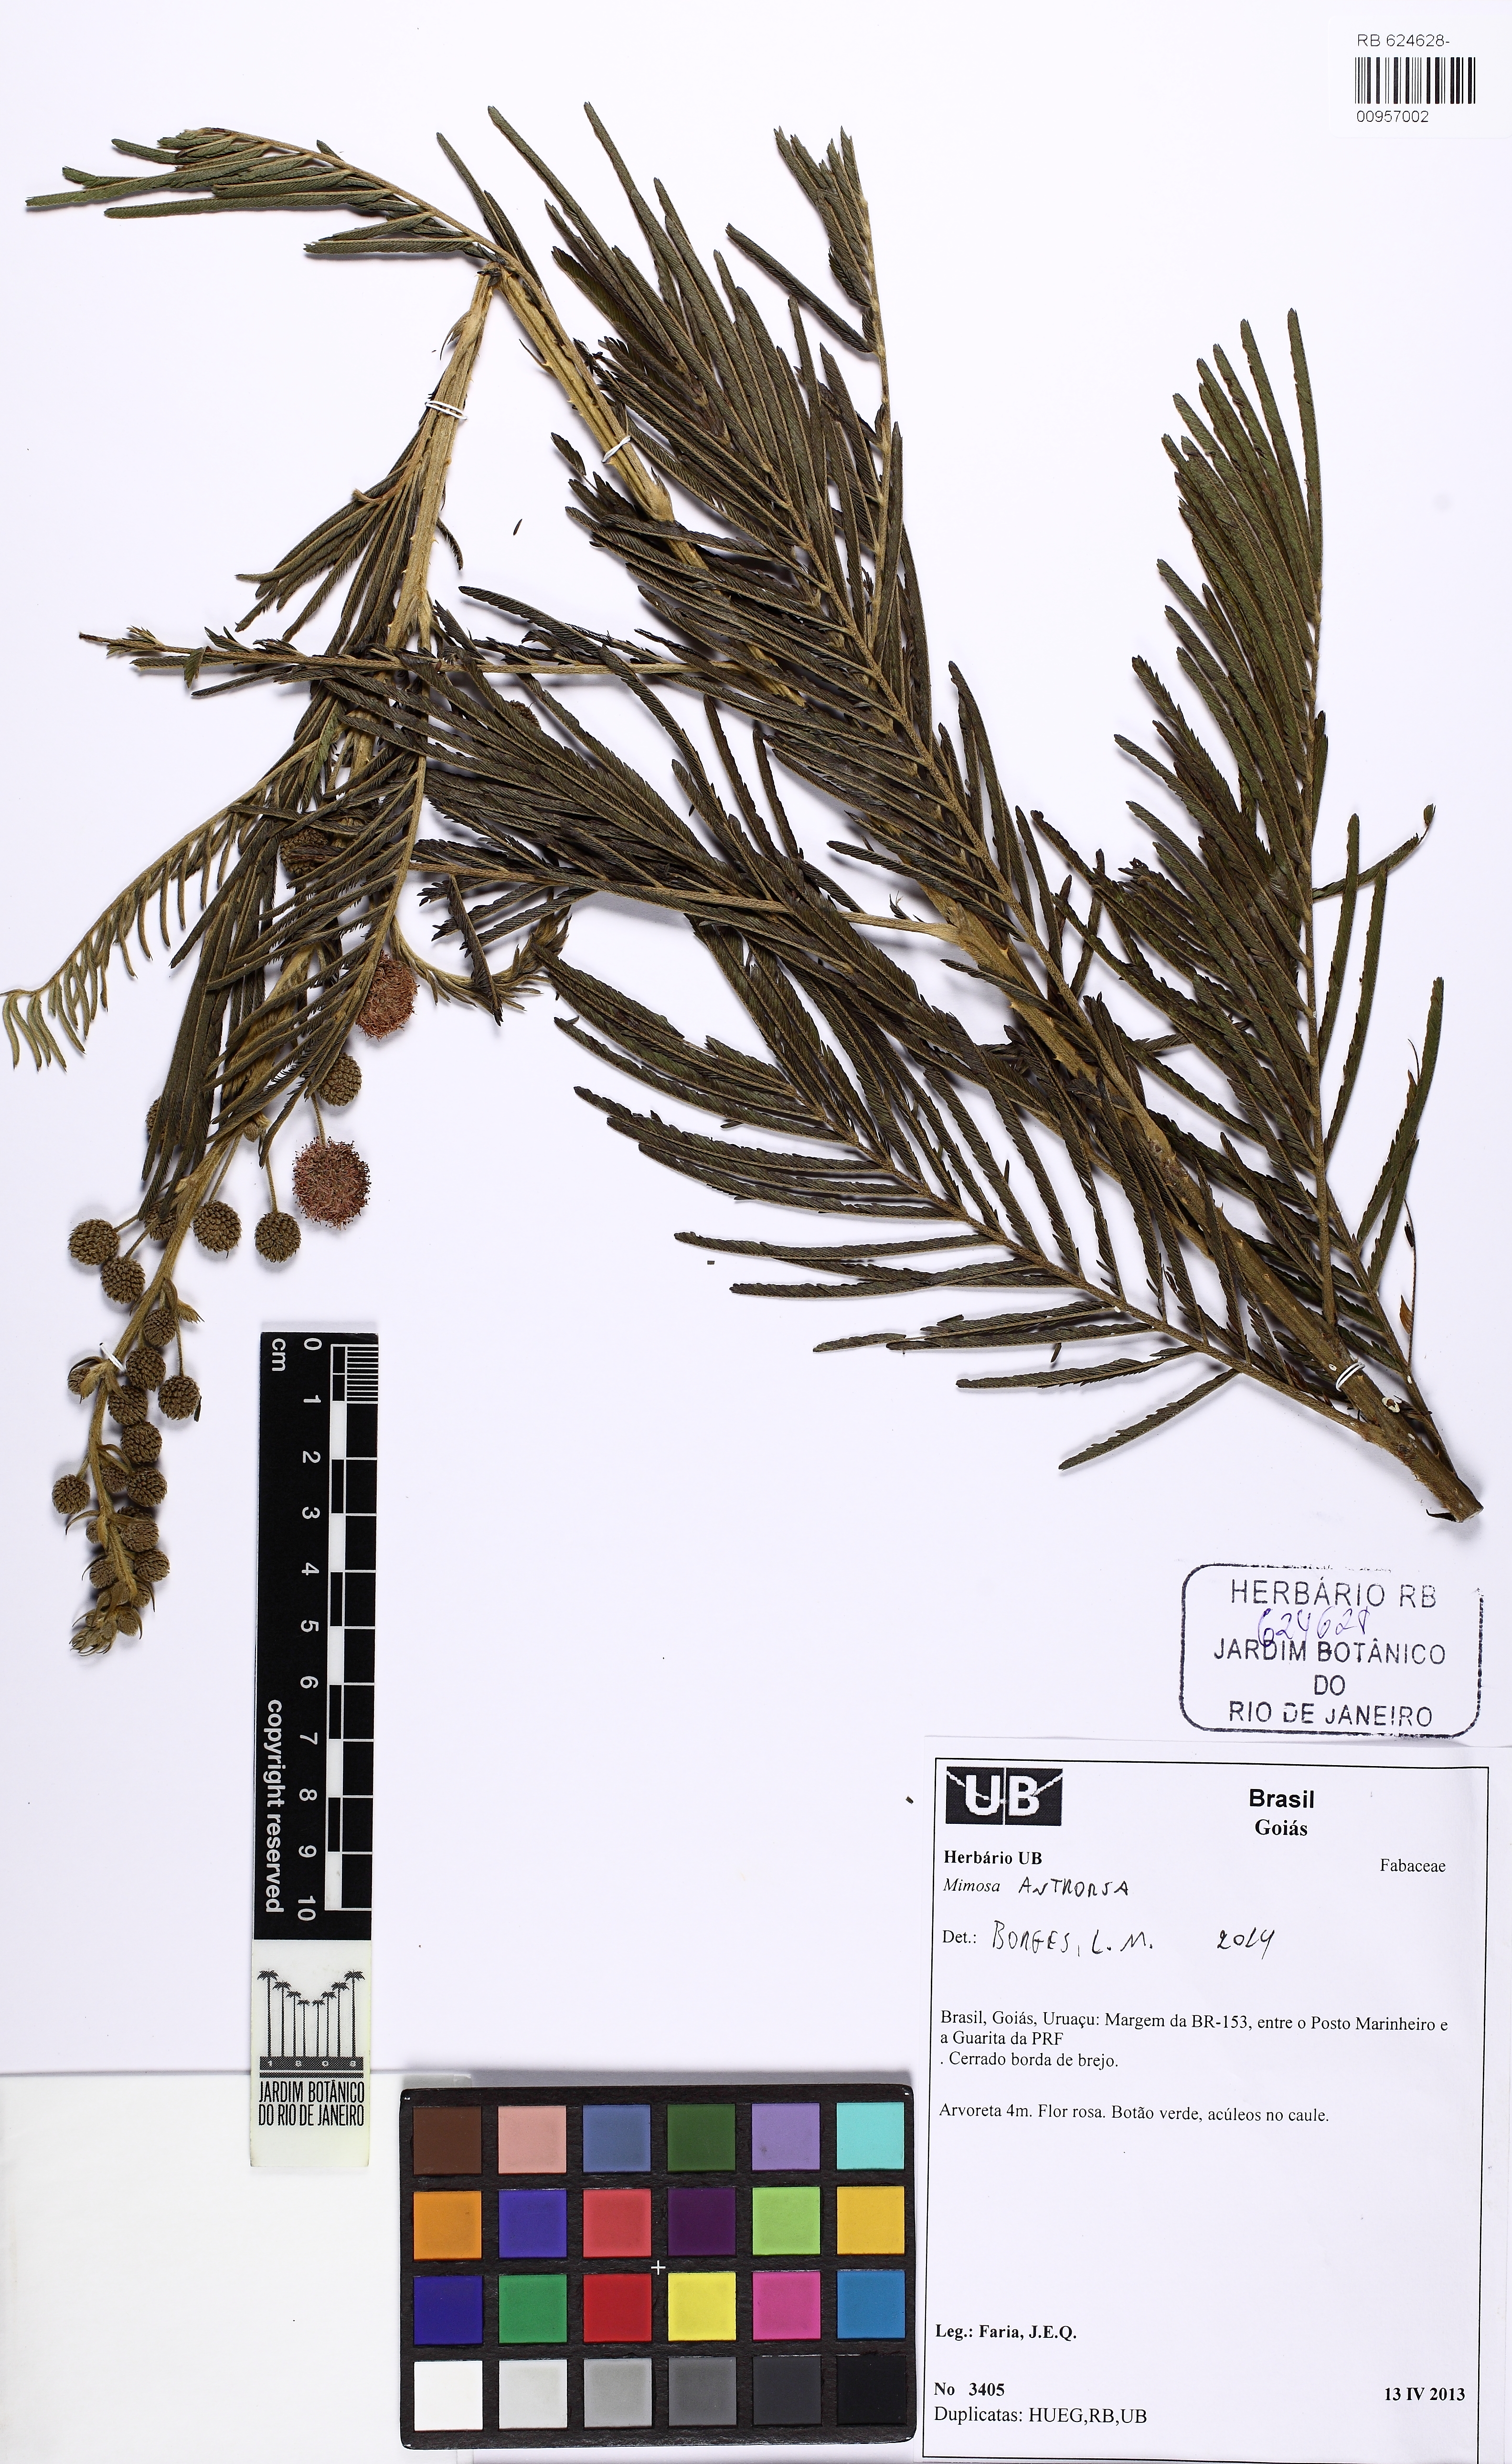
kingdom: Plantae
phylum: Tracheophyta
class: Magnoliopsida
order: Fabales
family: Fabaceae
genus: Mimosa
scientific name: Mimosa antrorsa
